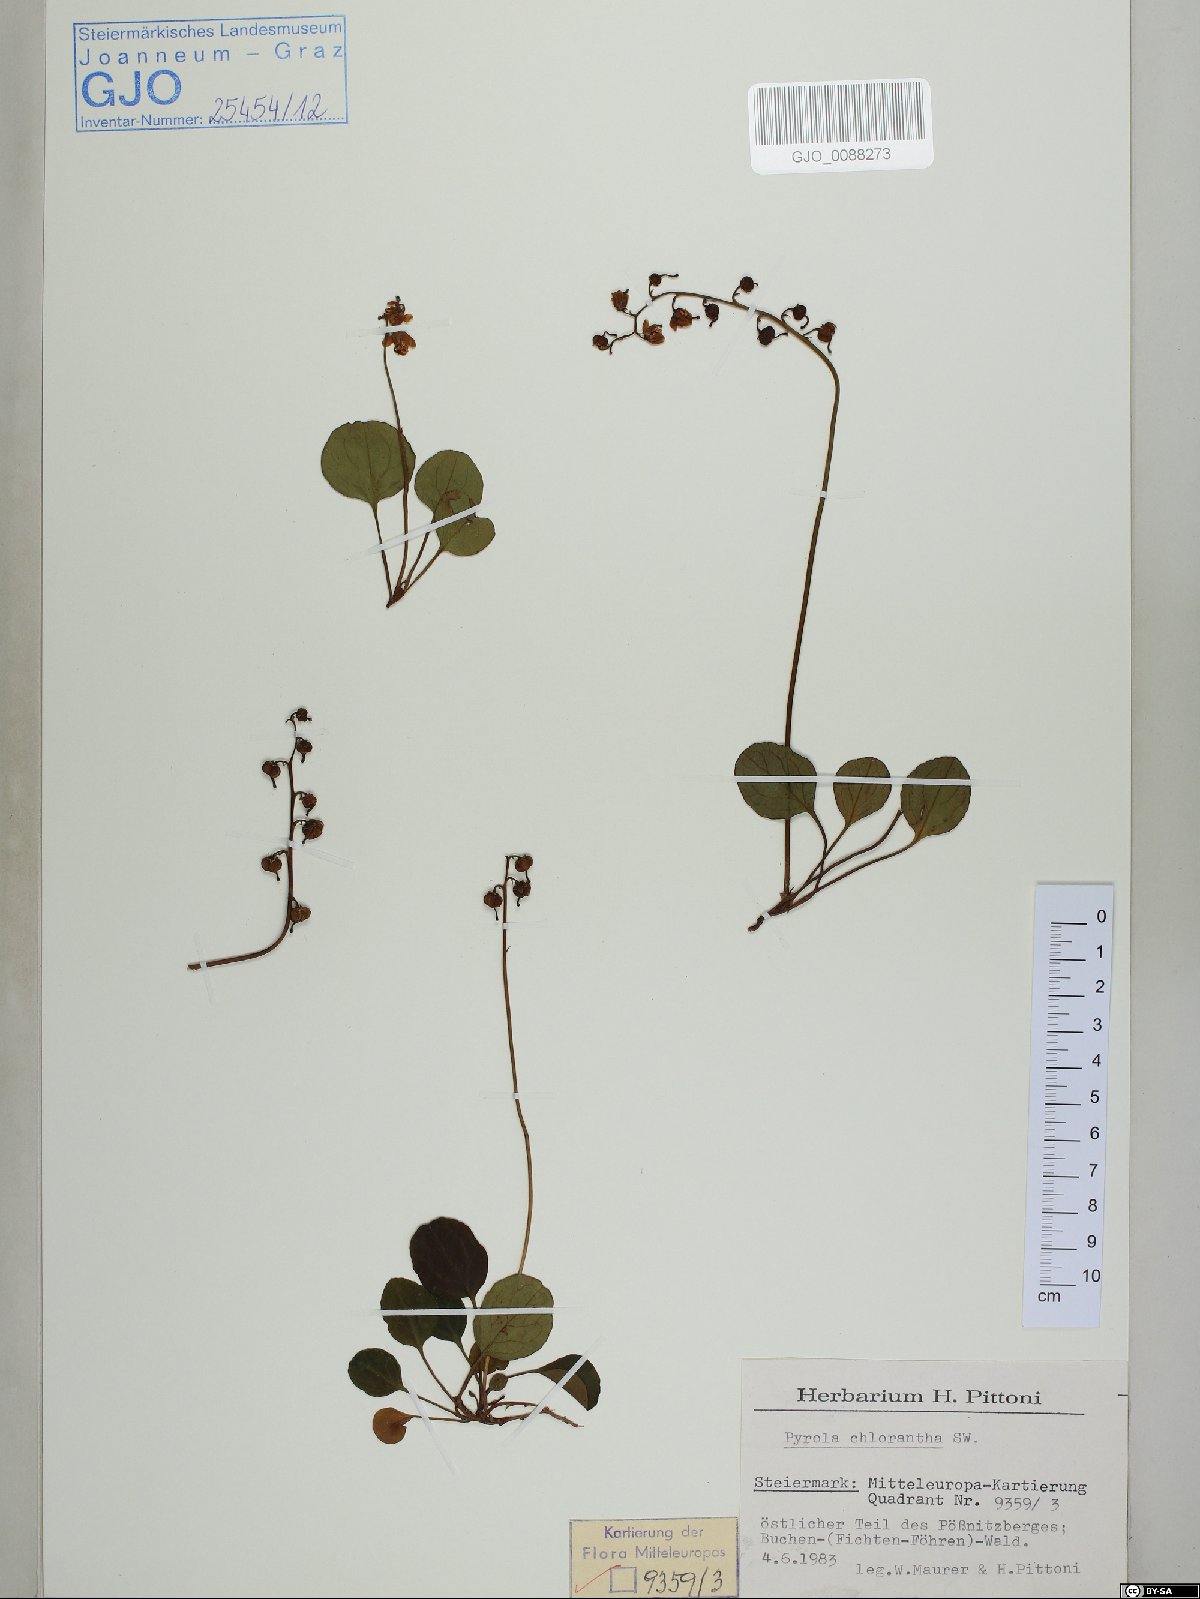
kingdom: Plantae
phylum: Tracheophyta
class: Magnoliopsida
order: Ericales
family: Ericaceae
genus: Pyrola
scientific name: Pyrola chlorantha
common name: Green wintergreen
